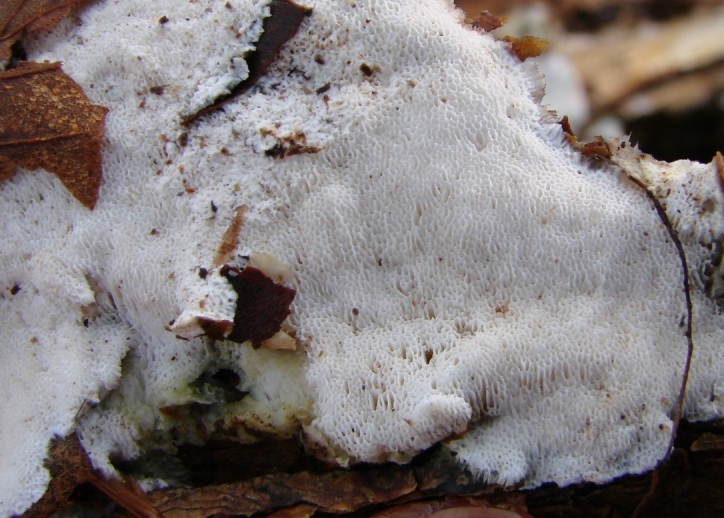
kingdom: Fungi
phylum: Basidiomycota
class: Agaricomycetes
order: Polyporales
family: Gelatoporiaceae
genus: Cinereomyces
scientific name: Cinereomyces lindbladii
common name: almindelig gråporesvamp
